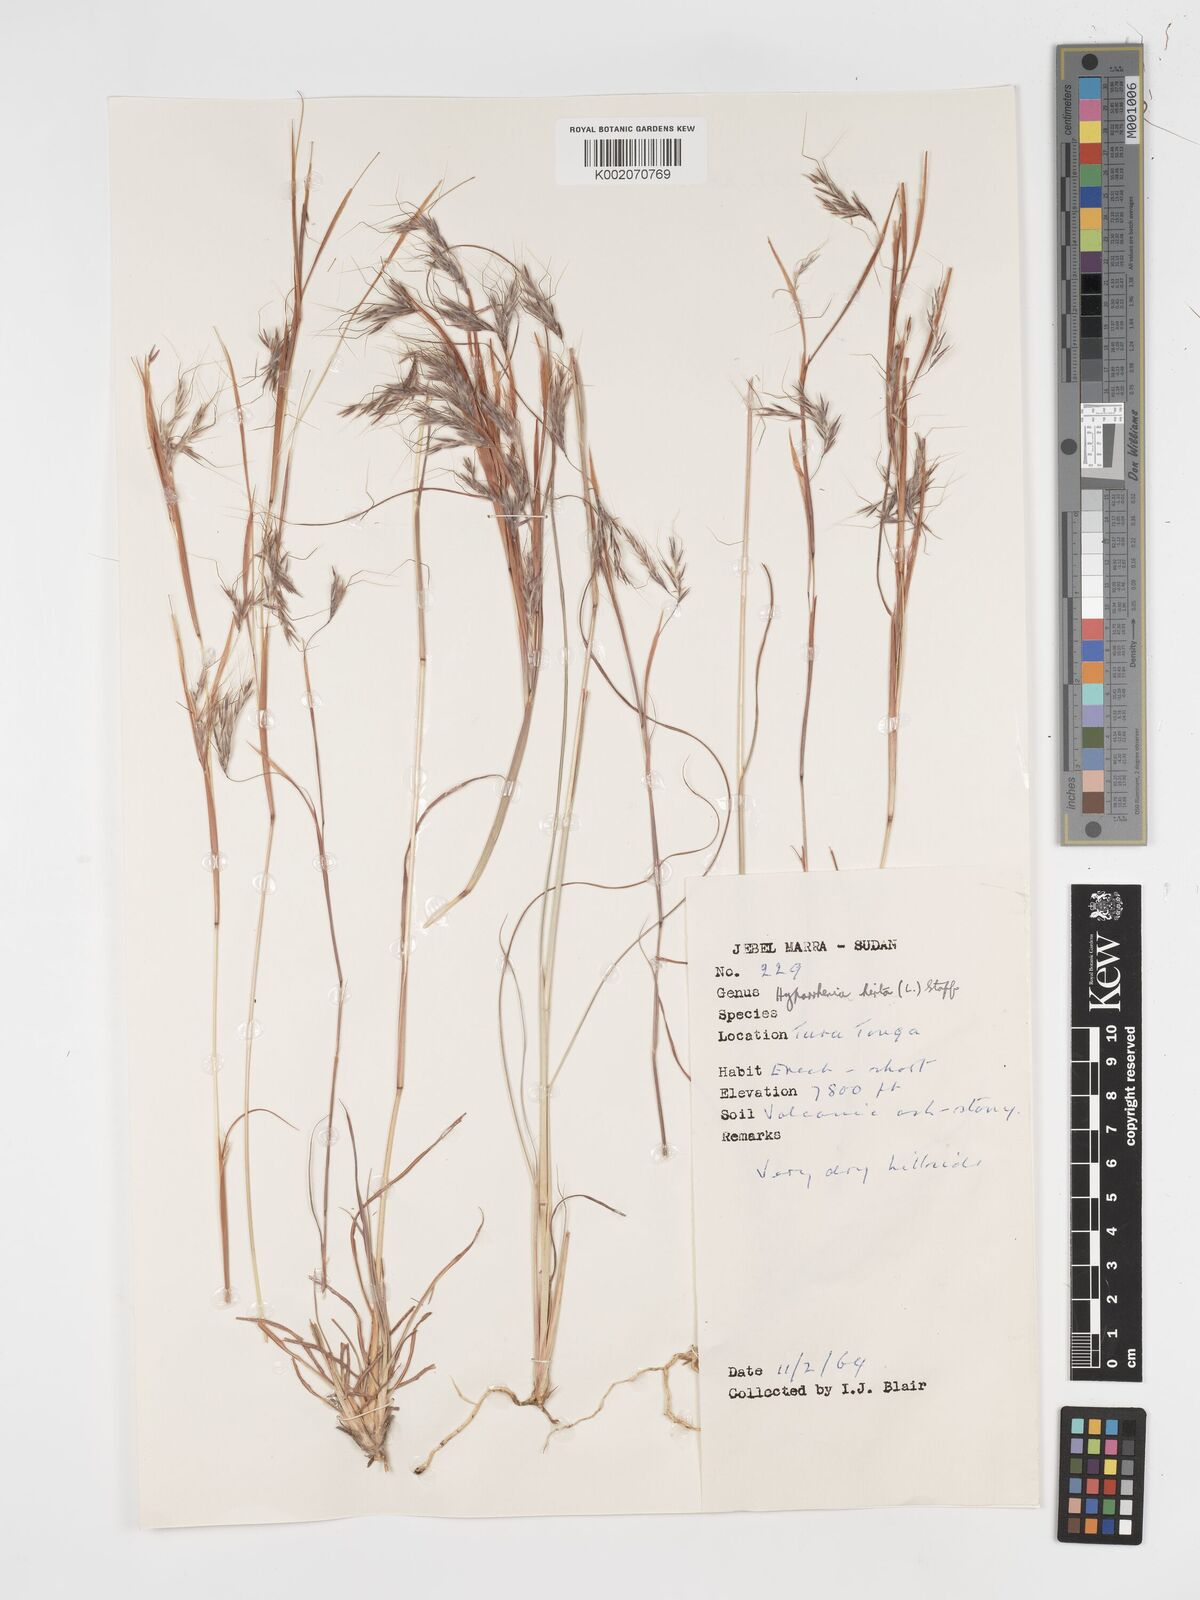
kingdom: Plantae
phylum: Tracheophyta
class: Liliopsida
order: Poales
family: Poaceae
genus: Hyparrhenia
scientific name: Hyparrhenia hirta
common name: Thatching grass
